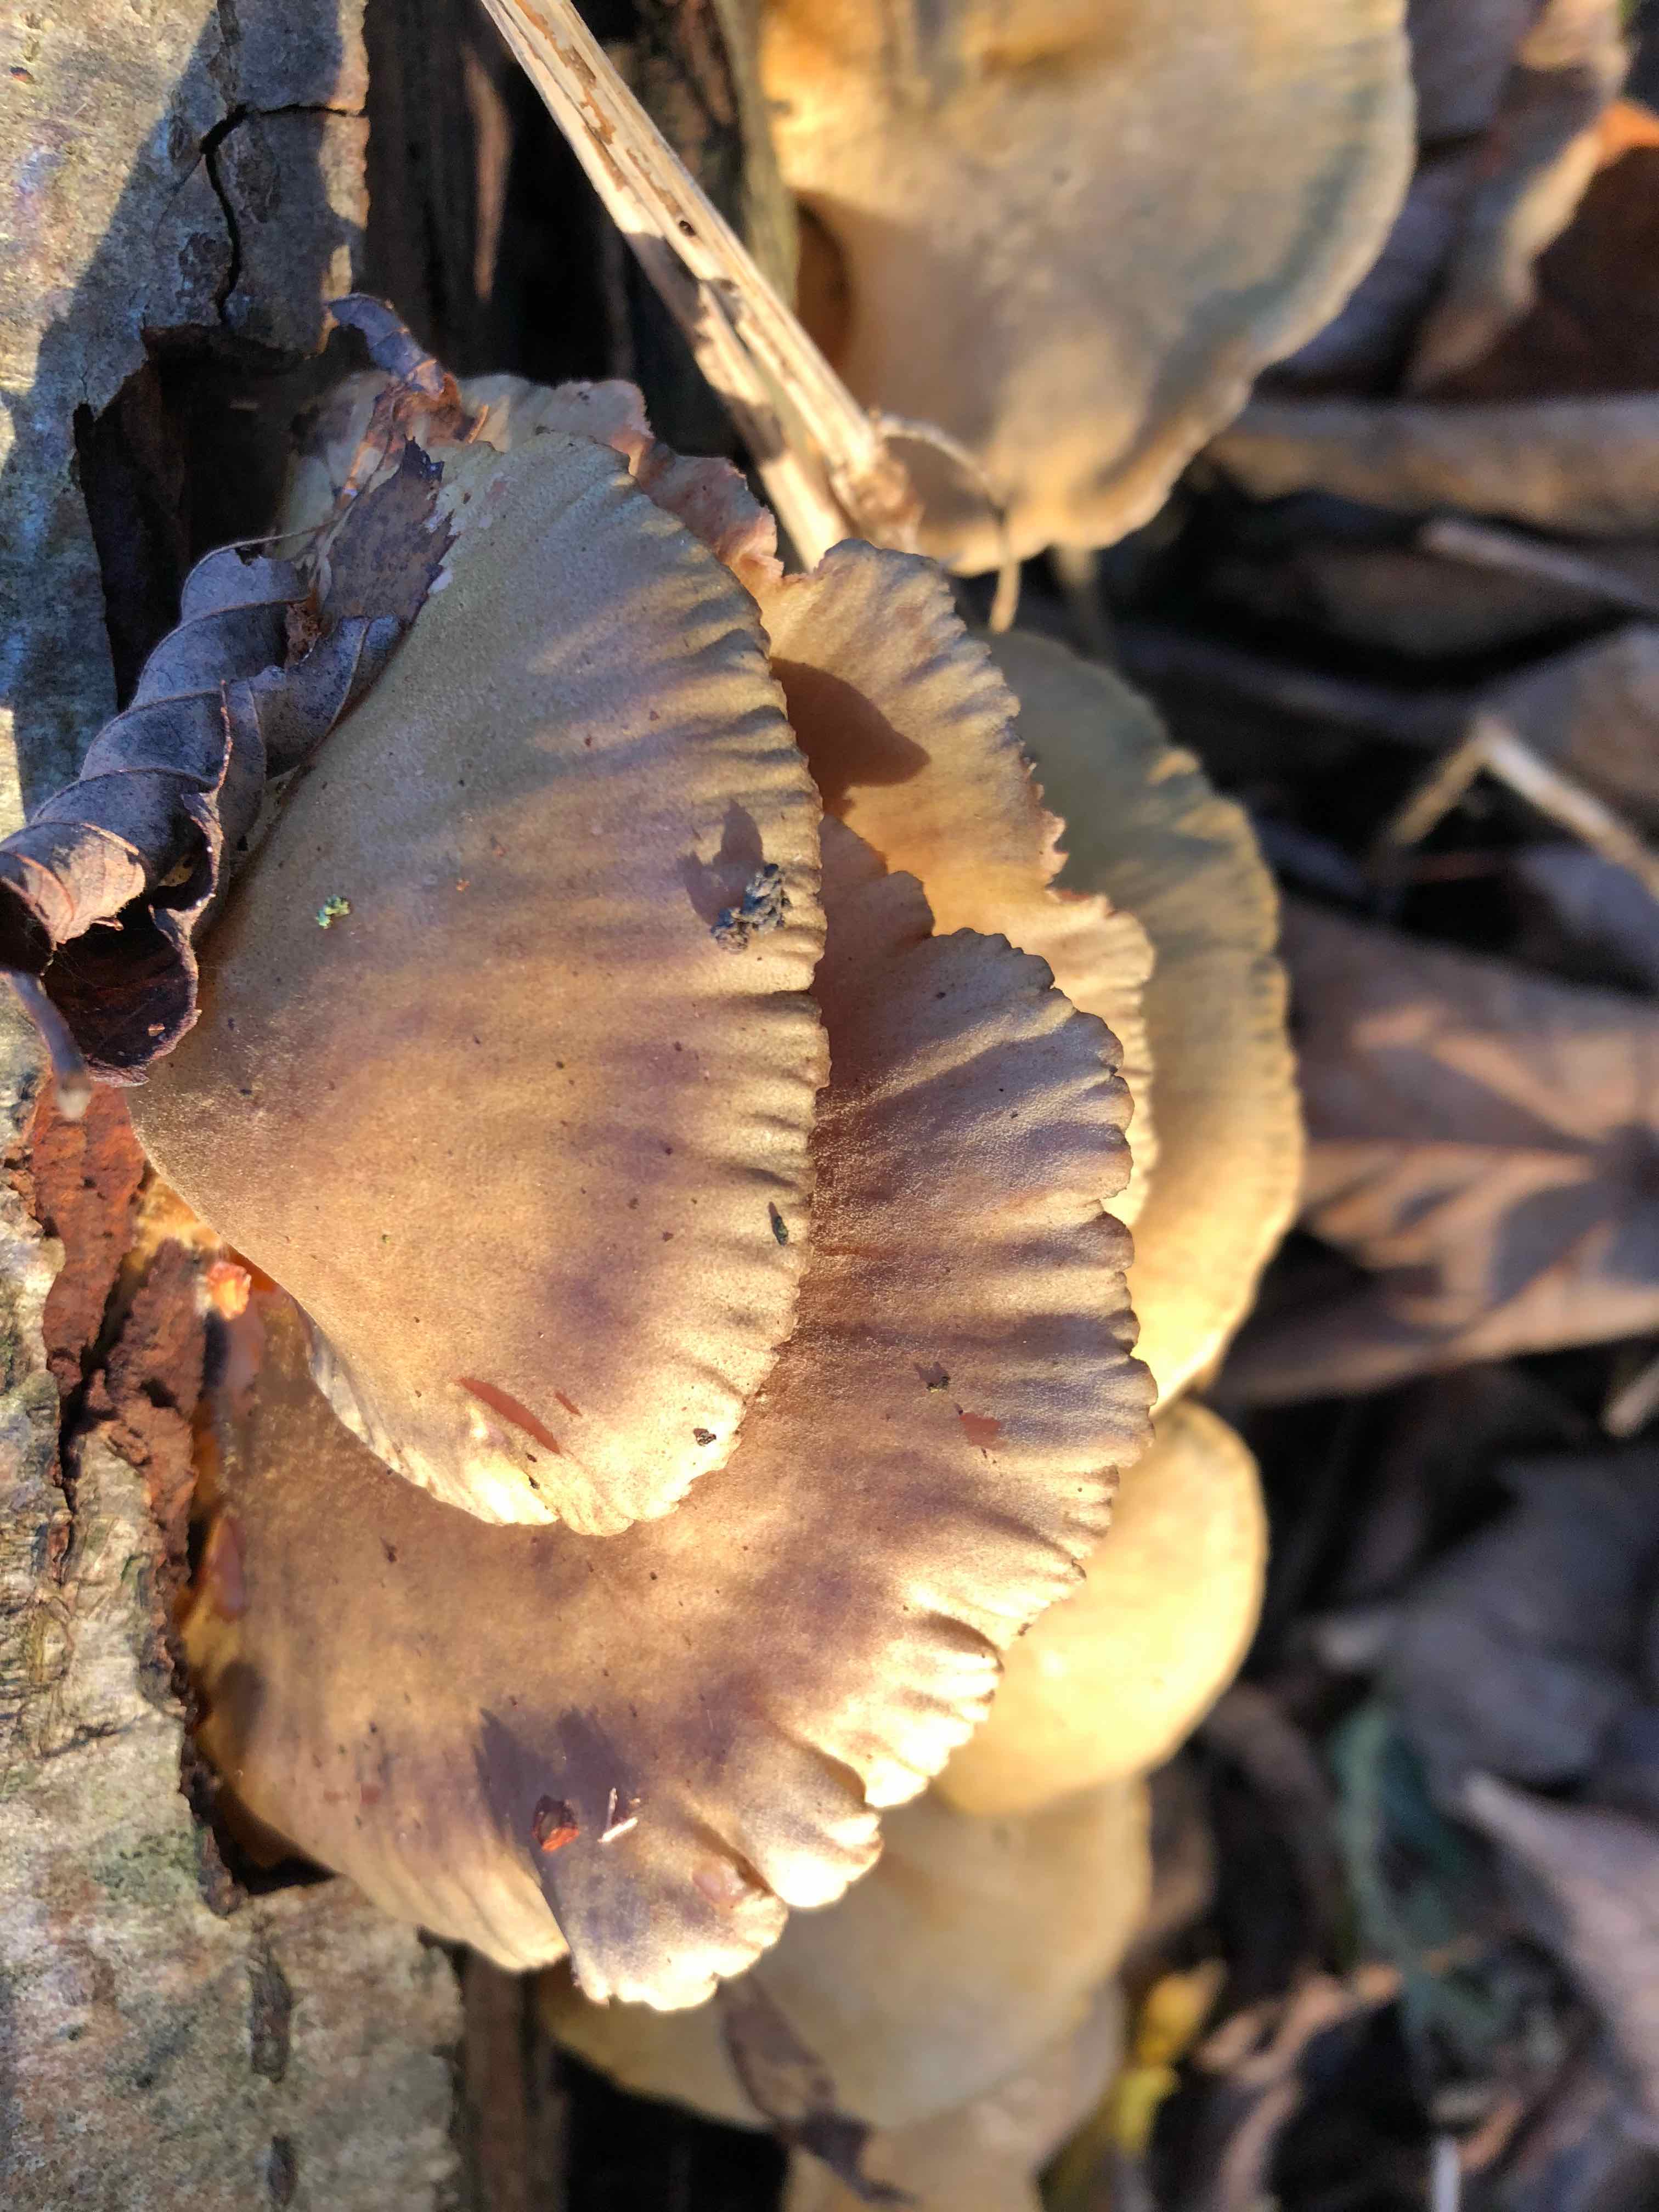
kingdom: Fungi
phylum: Basidiomycota
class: Agaricomycetes
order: Agaricales
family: Pleurotaceae
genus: Pleurotus
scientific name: Pleurotus ostreatus
